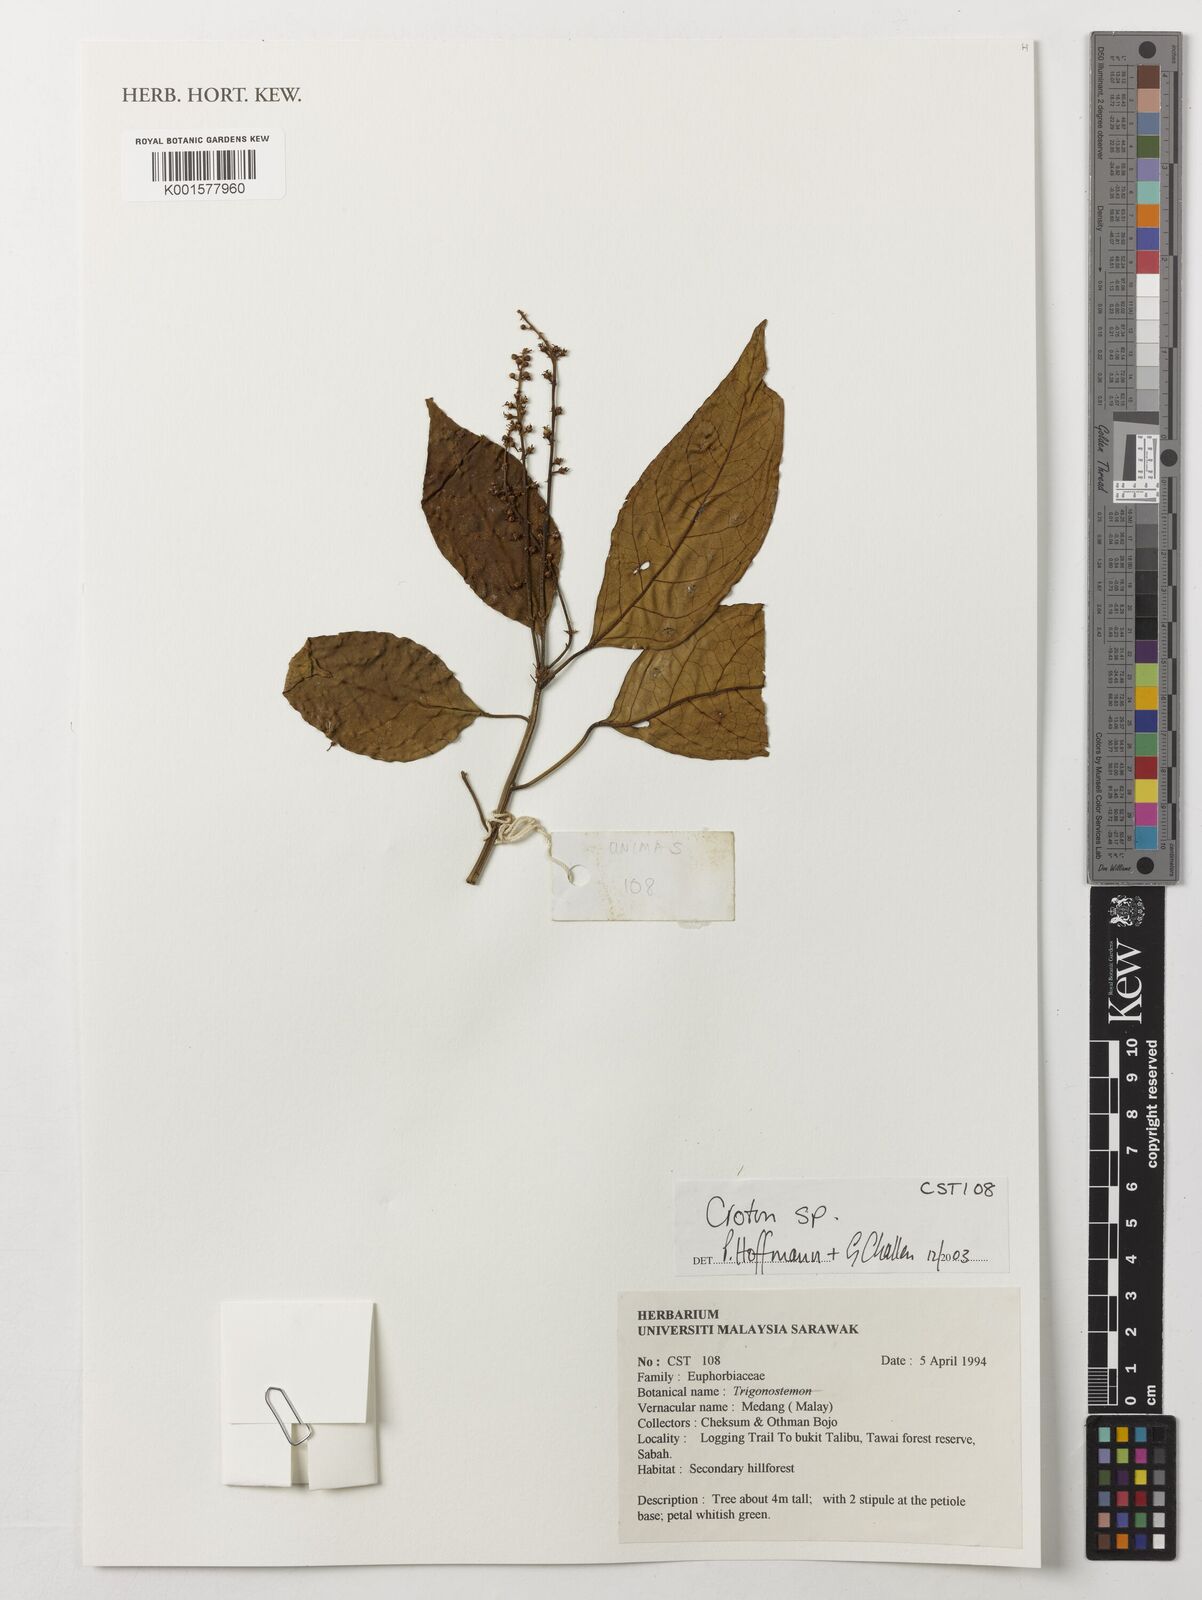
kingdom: Plantae
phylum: Tracheophyta
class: Magnoliopsida
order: Malpighiales
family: Euphorbiaceae
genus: Croton
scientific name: Croton
